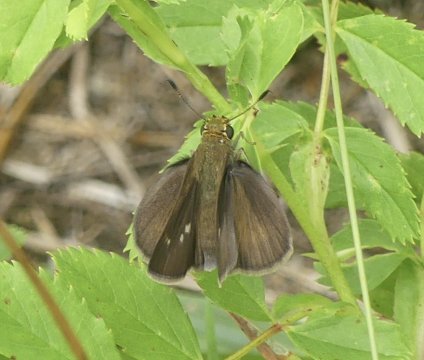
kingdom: Animalia
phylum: Arthropoda
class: Insecta
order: Lepidoptera
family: Hesperiidae
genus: Euphyes
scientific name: Euphyes vestris
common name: Dun Skipper
